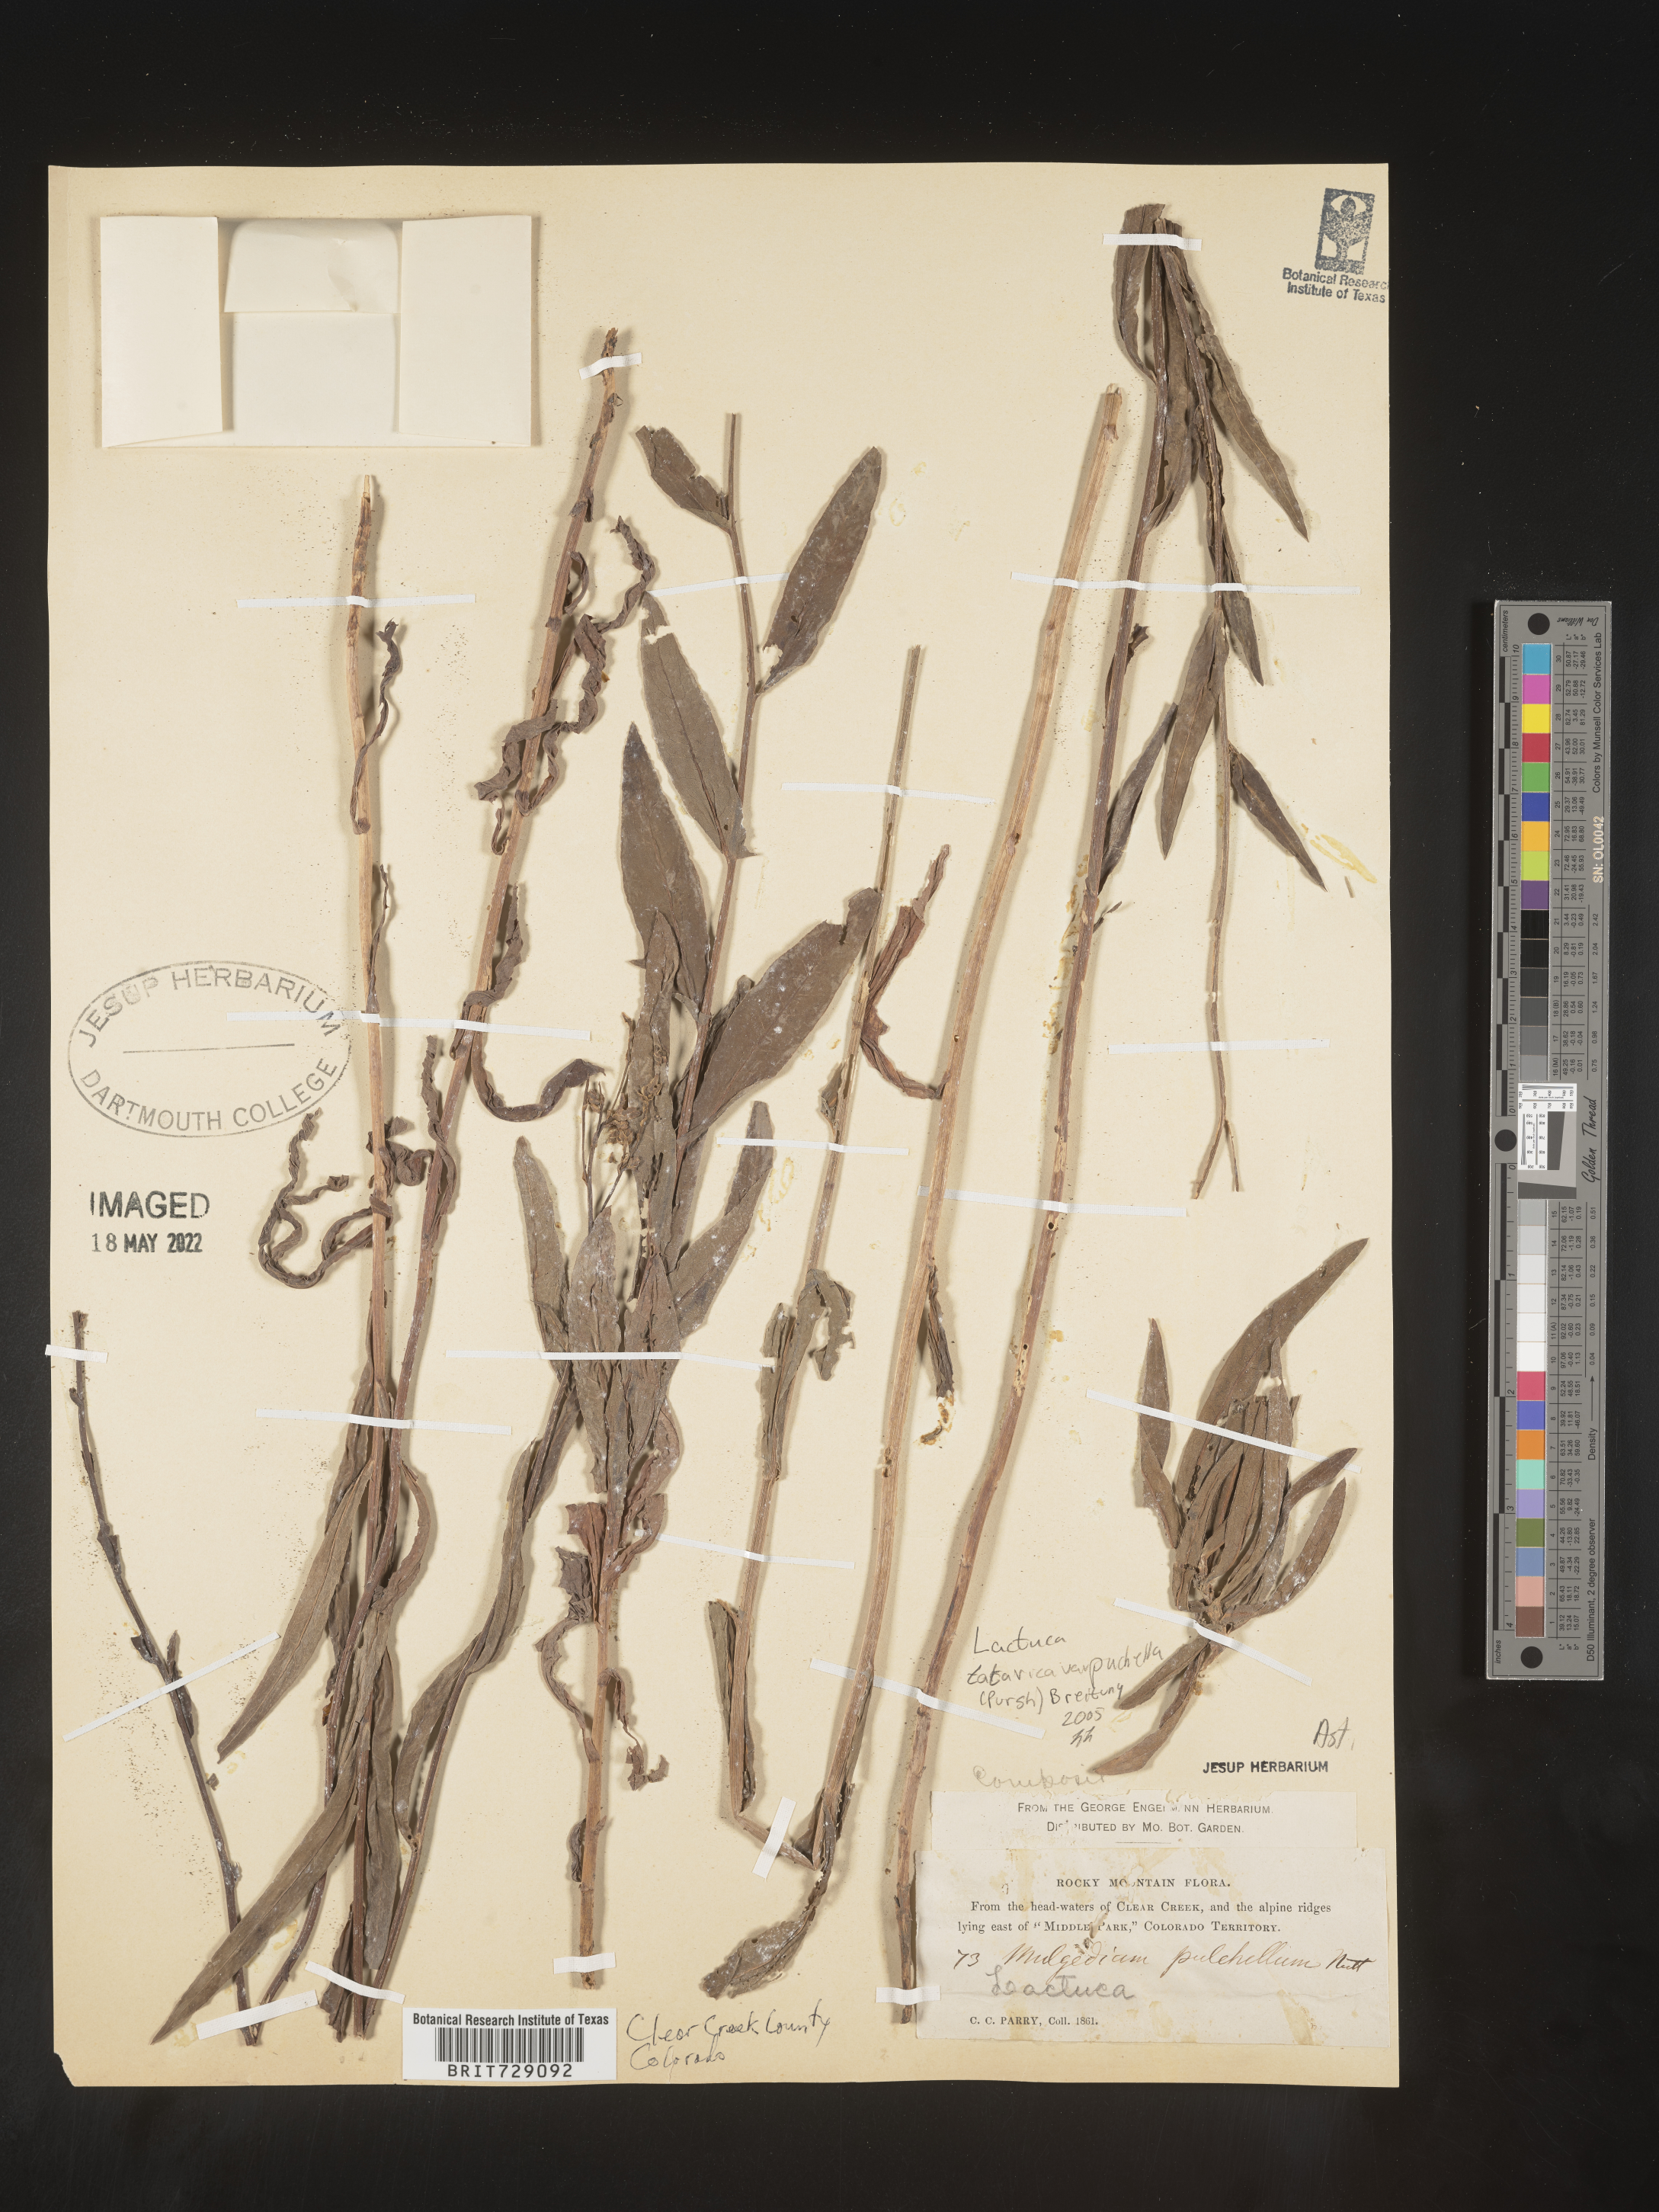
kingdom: Plantae
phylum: Tracheophyta
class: Magnoliopsida
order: Asterales
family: Asteraceae
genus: Lactuca
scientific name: Lactuca
